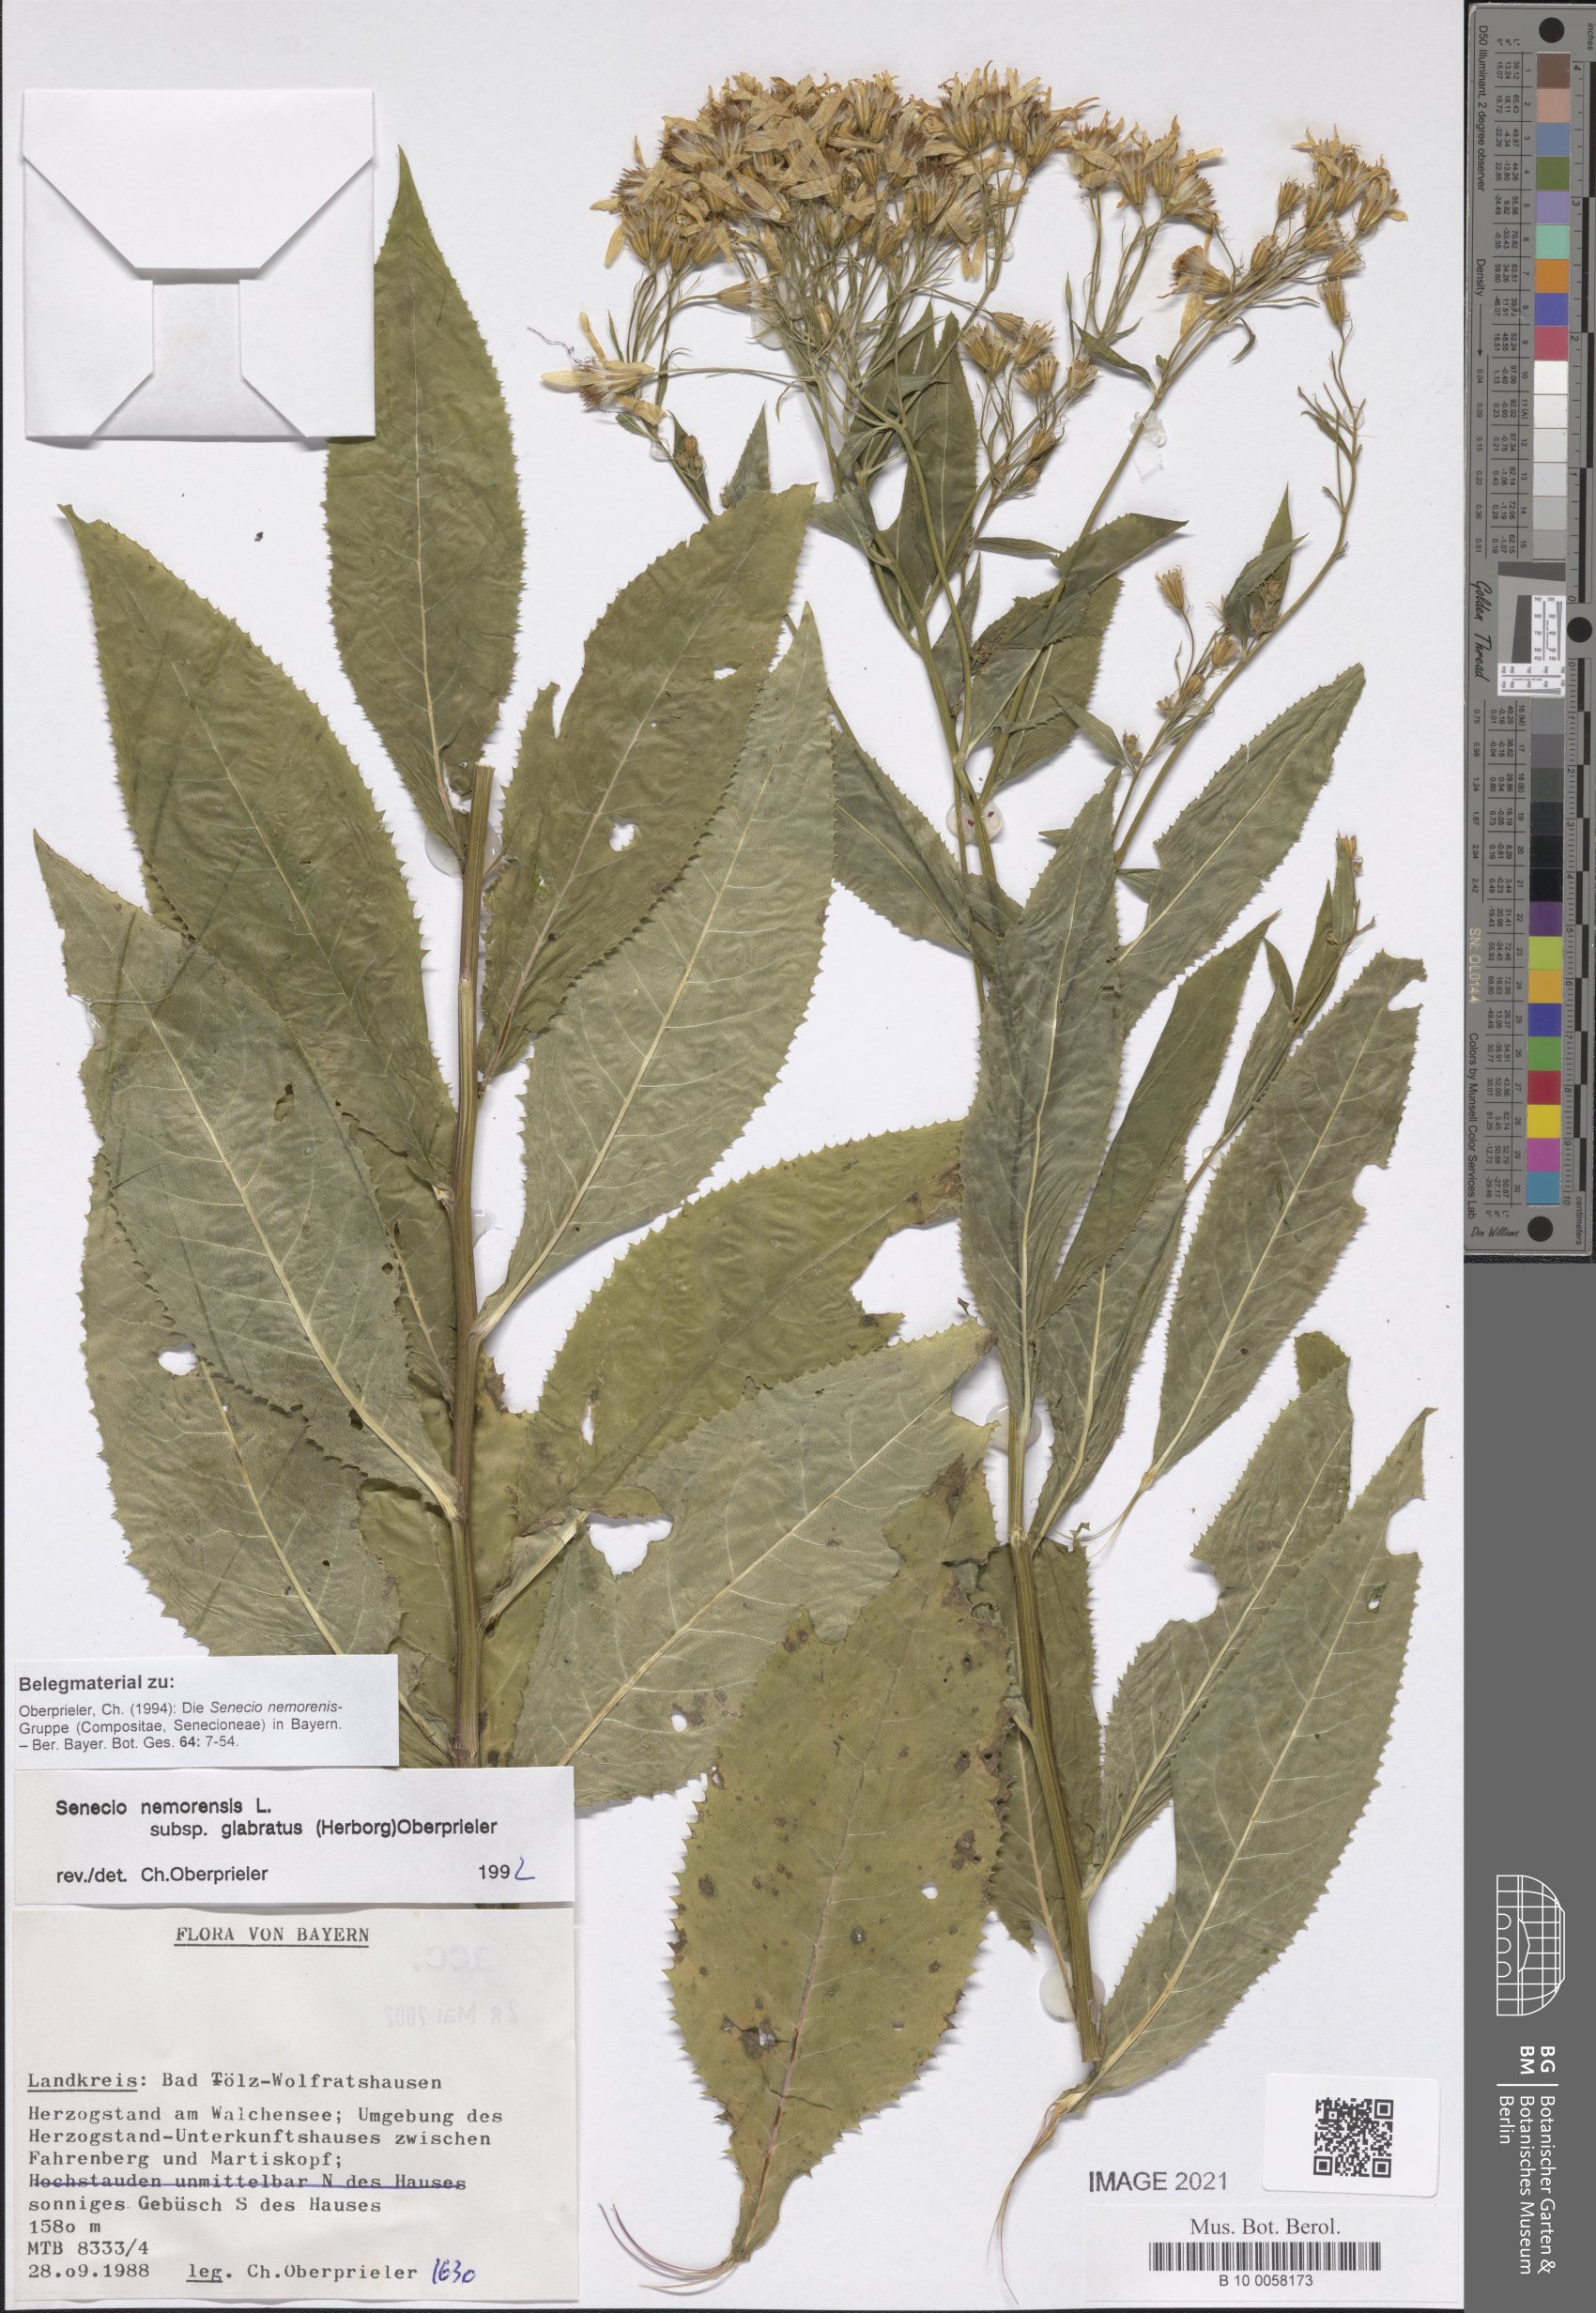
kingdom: Plantae
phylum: Tracheophyta
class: Magnoliopsida
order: Asterales
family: Asteraceae
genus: Senecio
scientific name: Senecio germanicus
